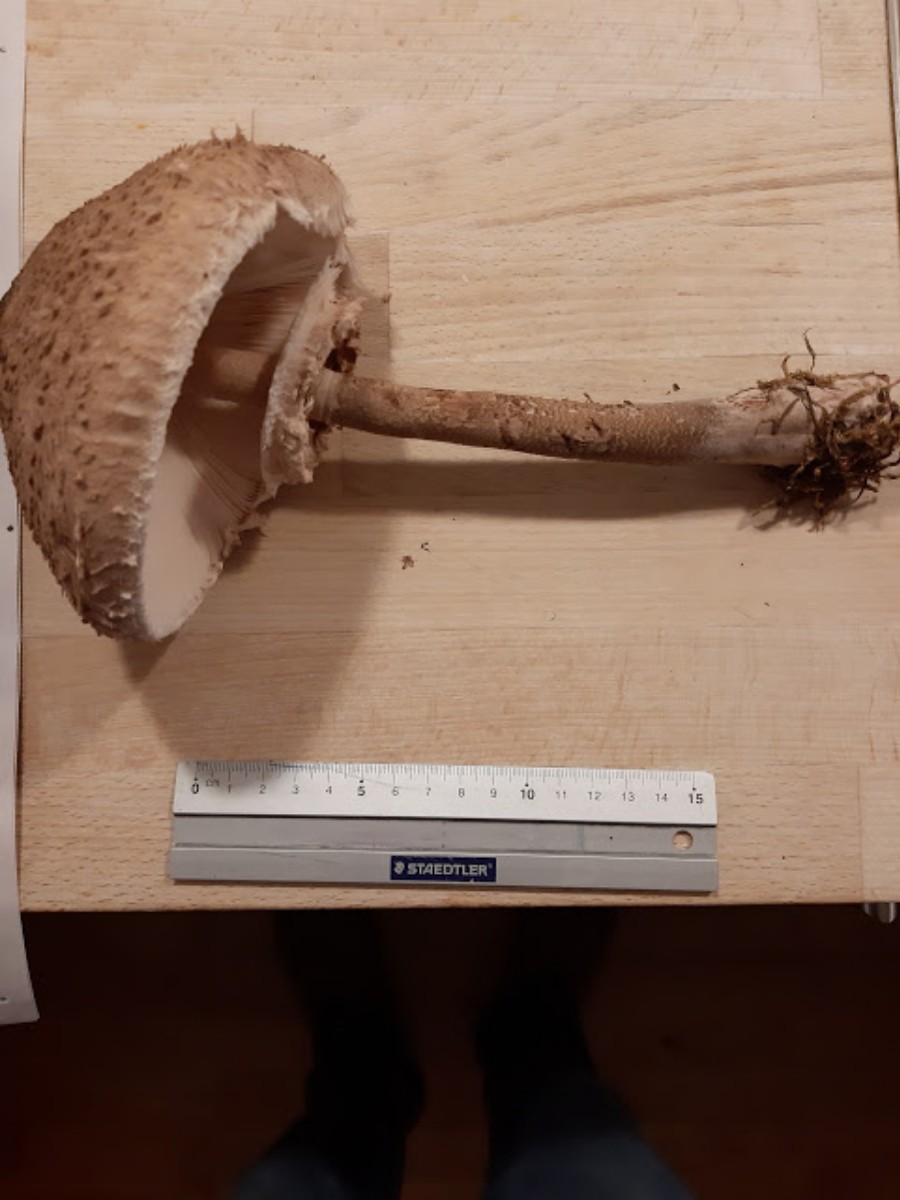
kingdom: Fungi
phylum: Basidiomycota
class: Agaricomycetes
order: Agaricales
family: Agaricaceae
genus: Macrolepiota
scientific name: Macrolepiota procera
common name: stor kæmpeparasolhat
